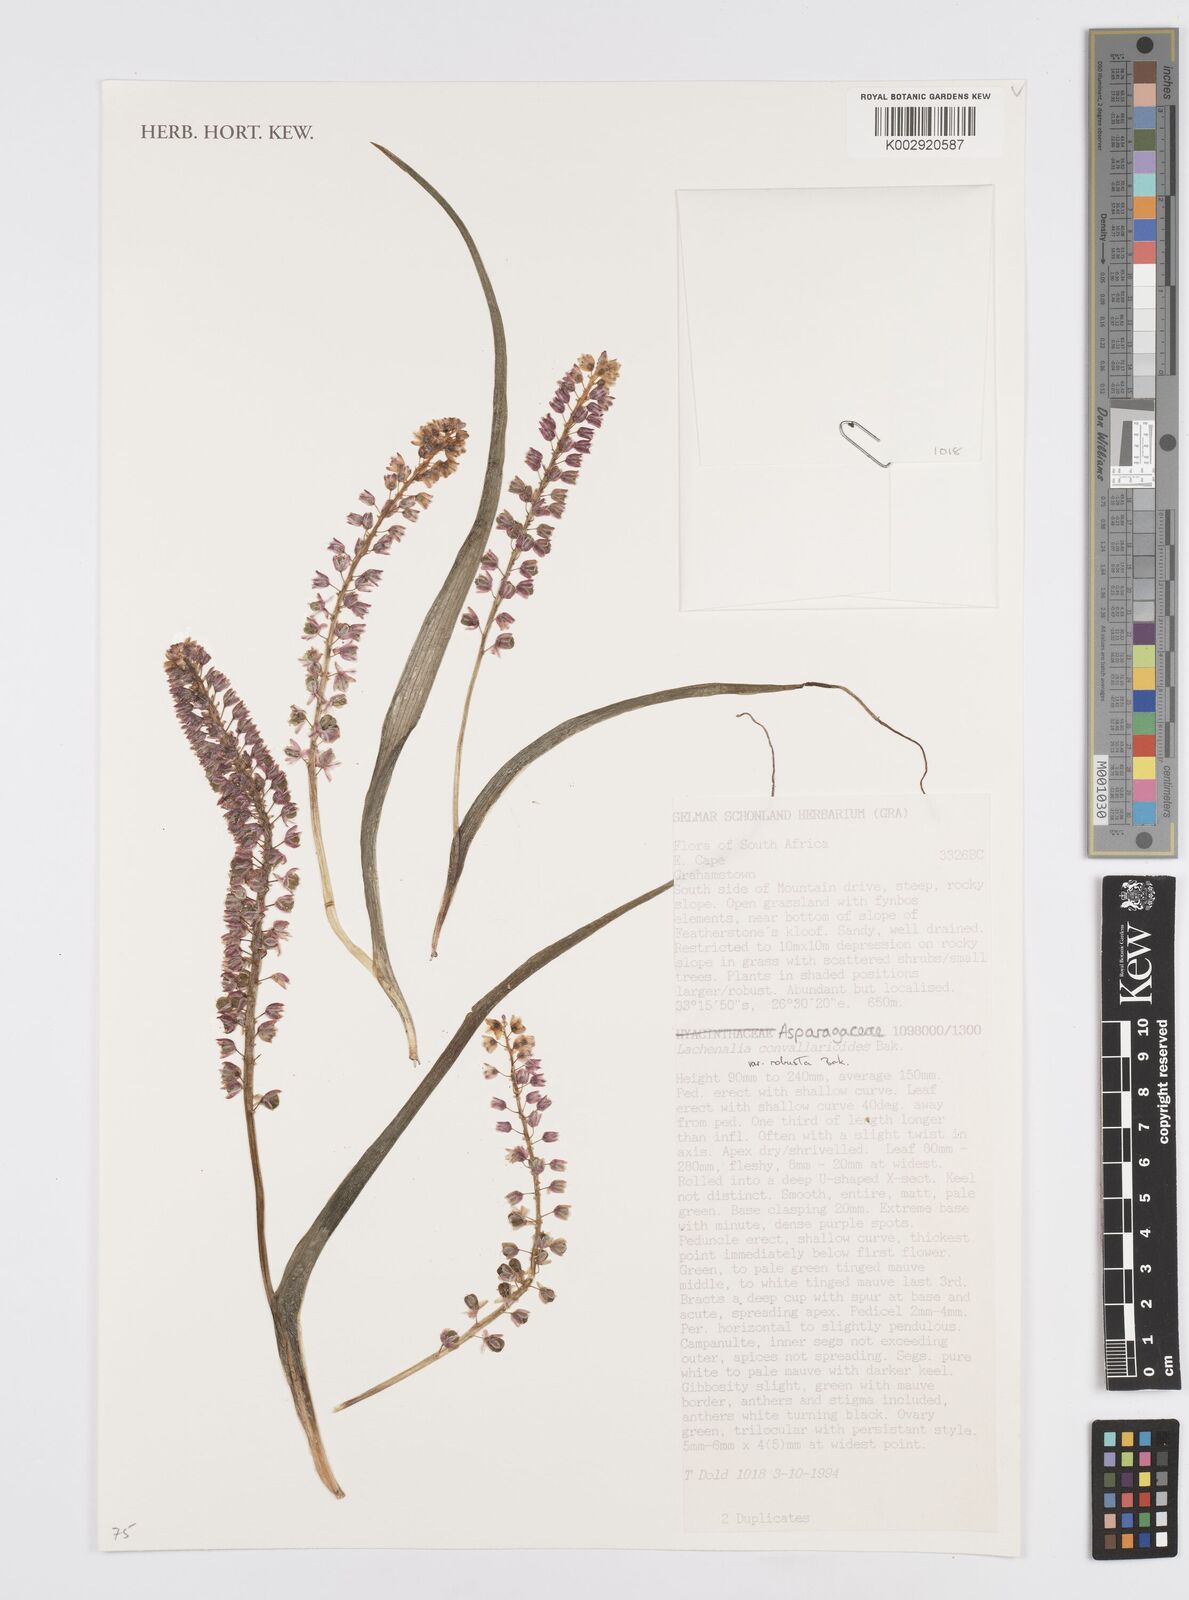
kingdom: Plantae
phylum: Tracheophyta
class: Liliopsida
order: Asparagales
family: Asparagaceae
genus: Lachenalia
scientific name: Lachenalia convallarioides
